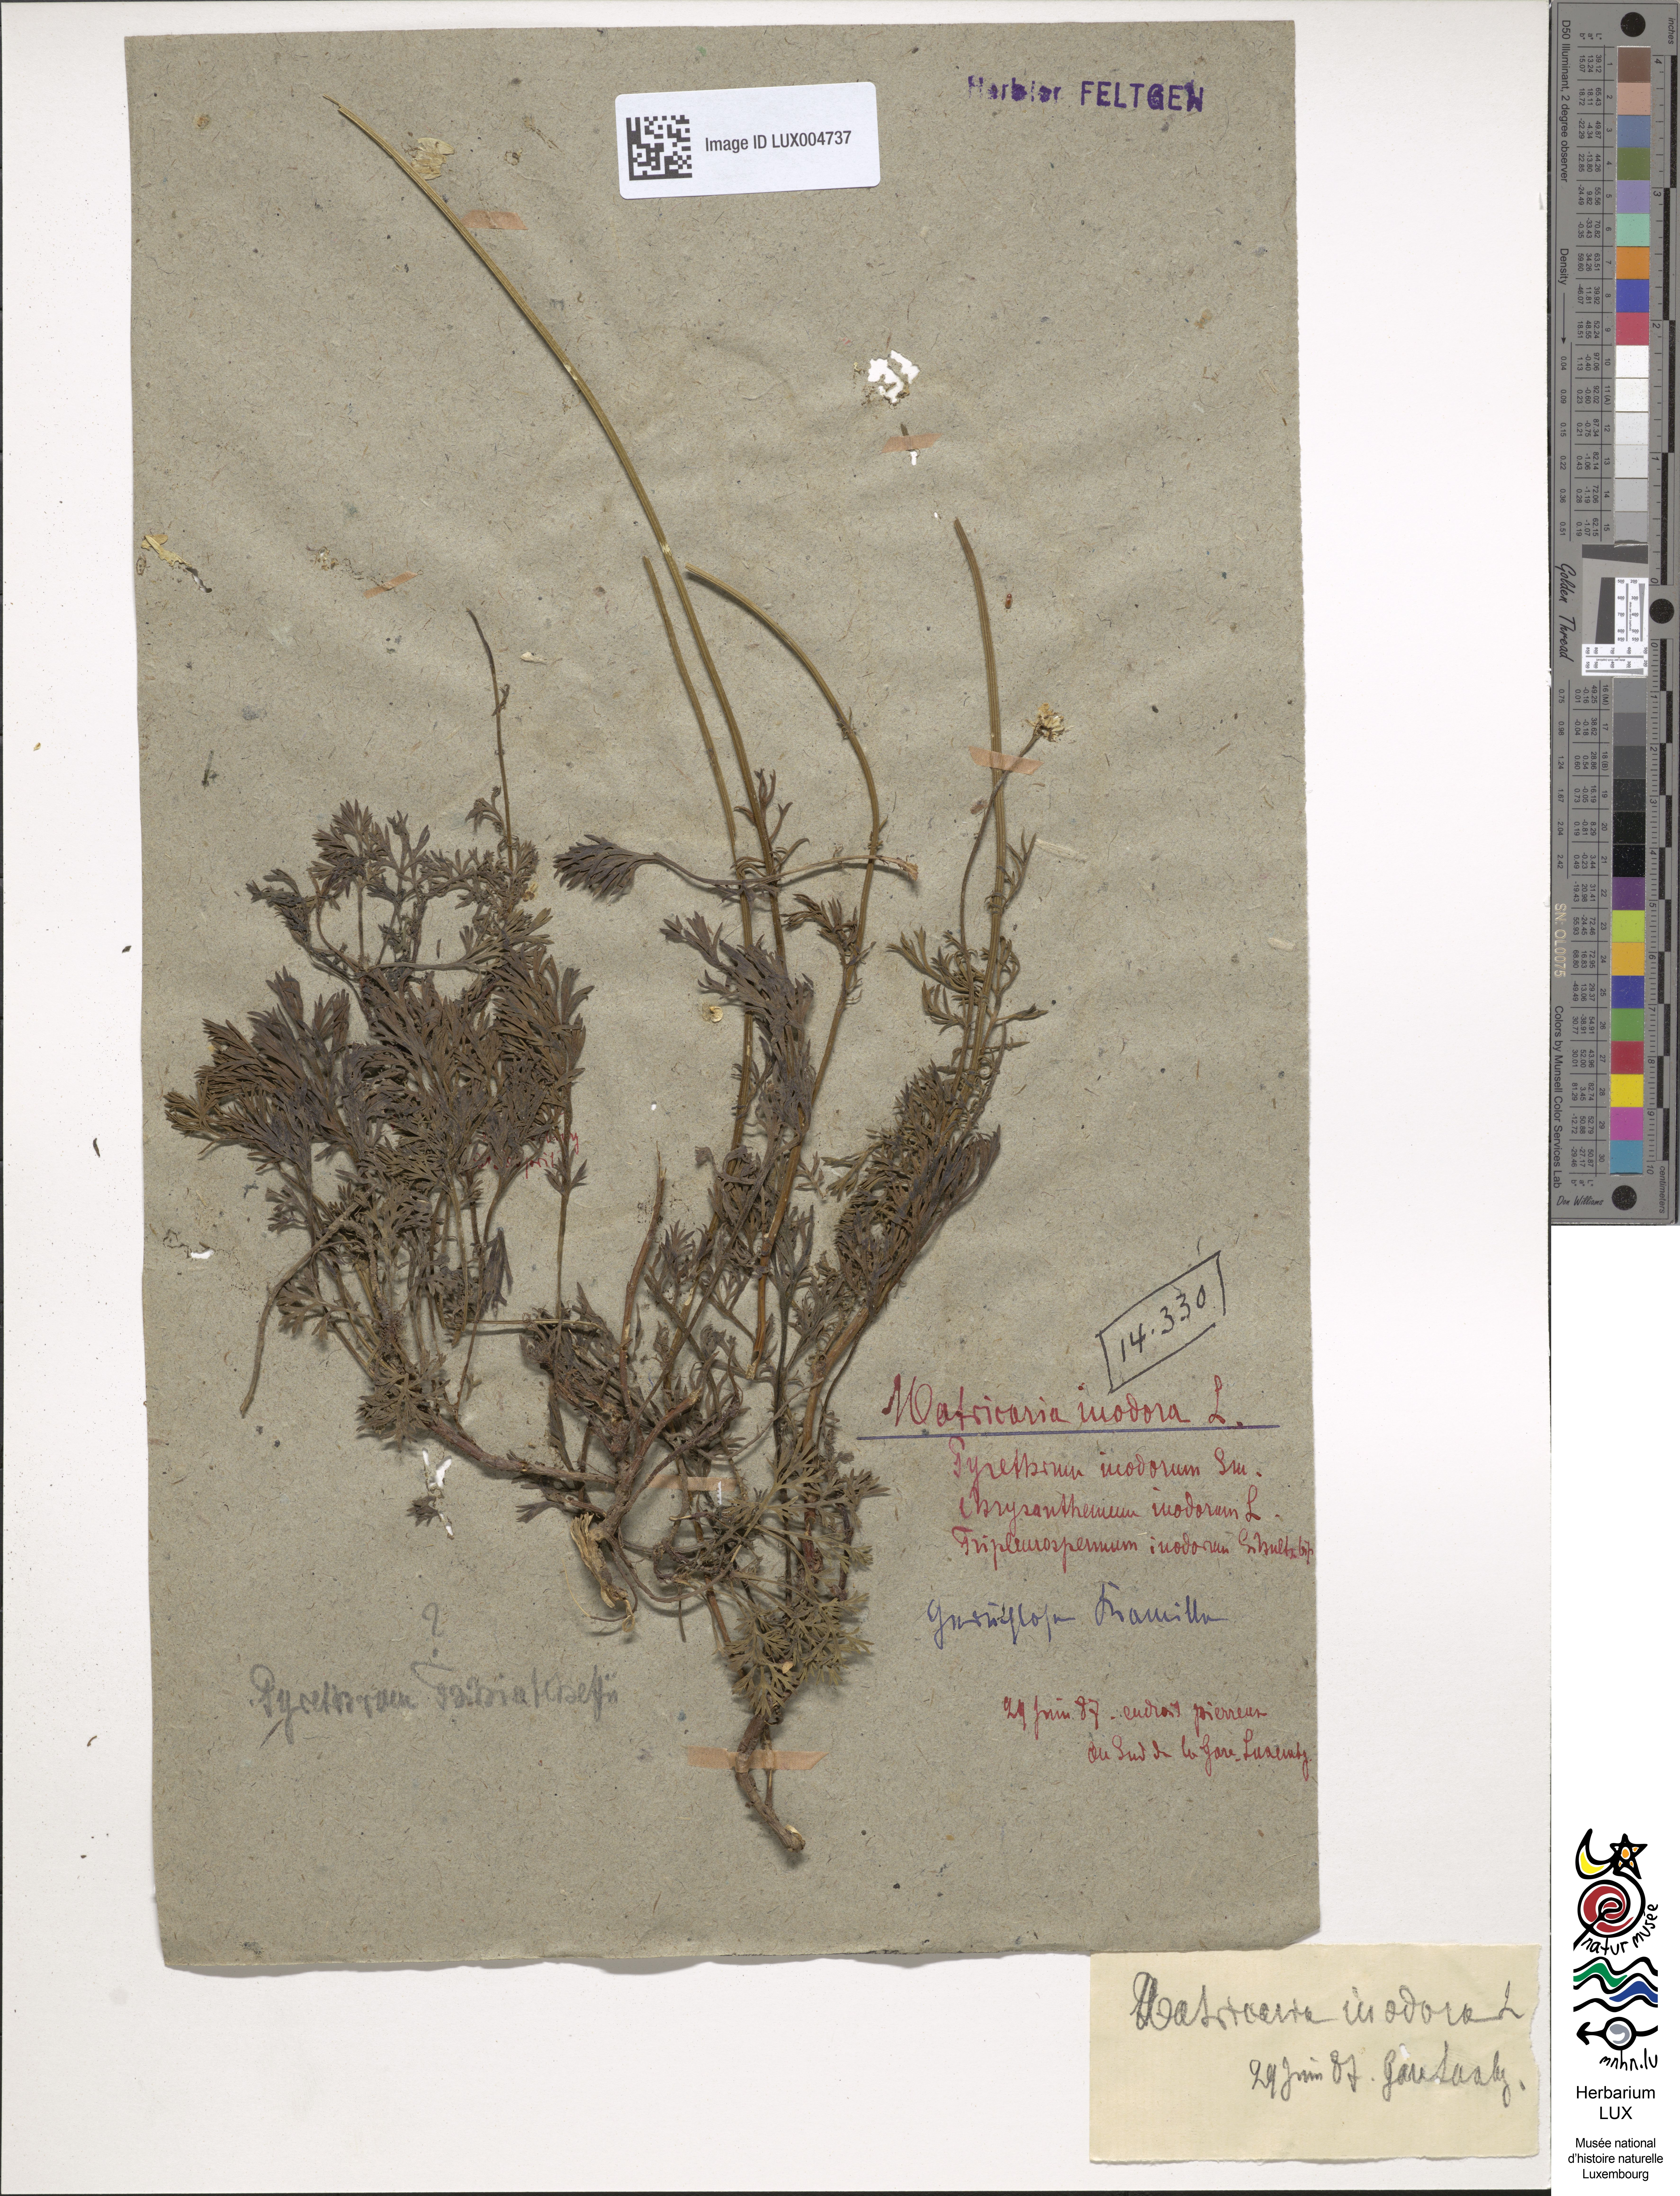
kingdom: Plantae
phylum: Tracheophyta
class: Magnoliopsida
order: Asterales
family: Asteraceae
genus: Tripleurospermum
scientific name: Tripleurospermum inodorum
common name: Scentless mayweed
